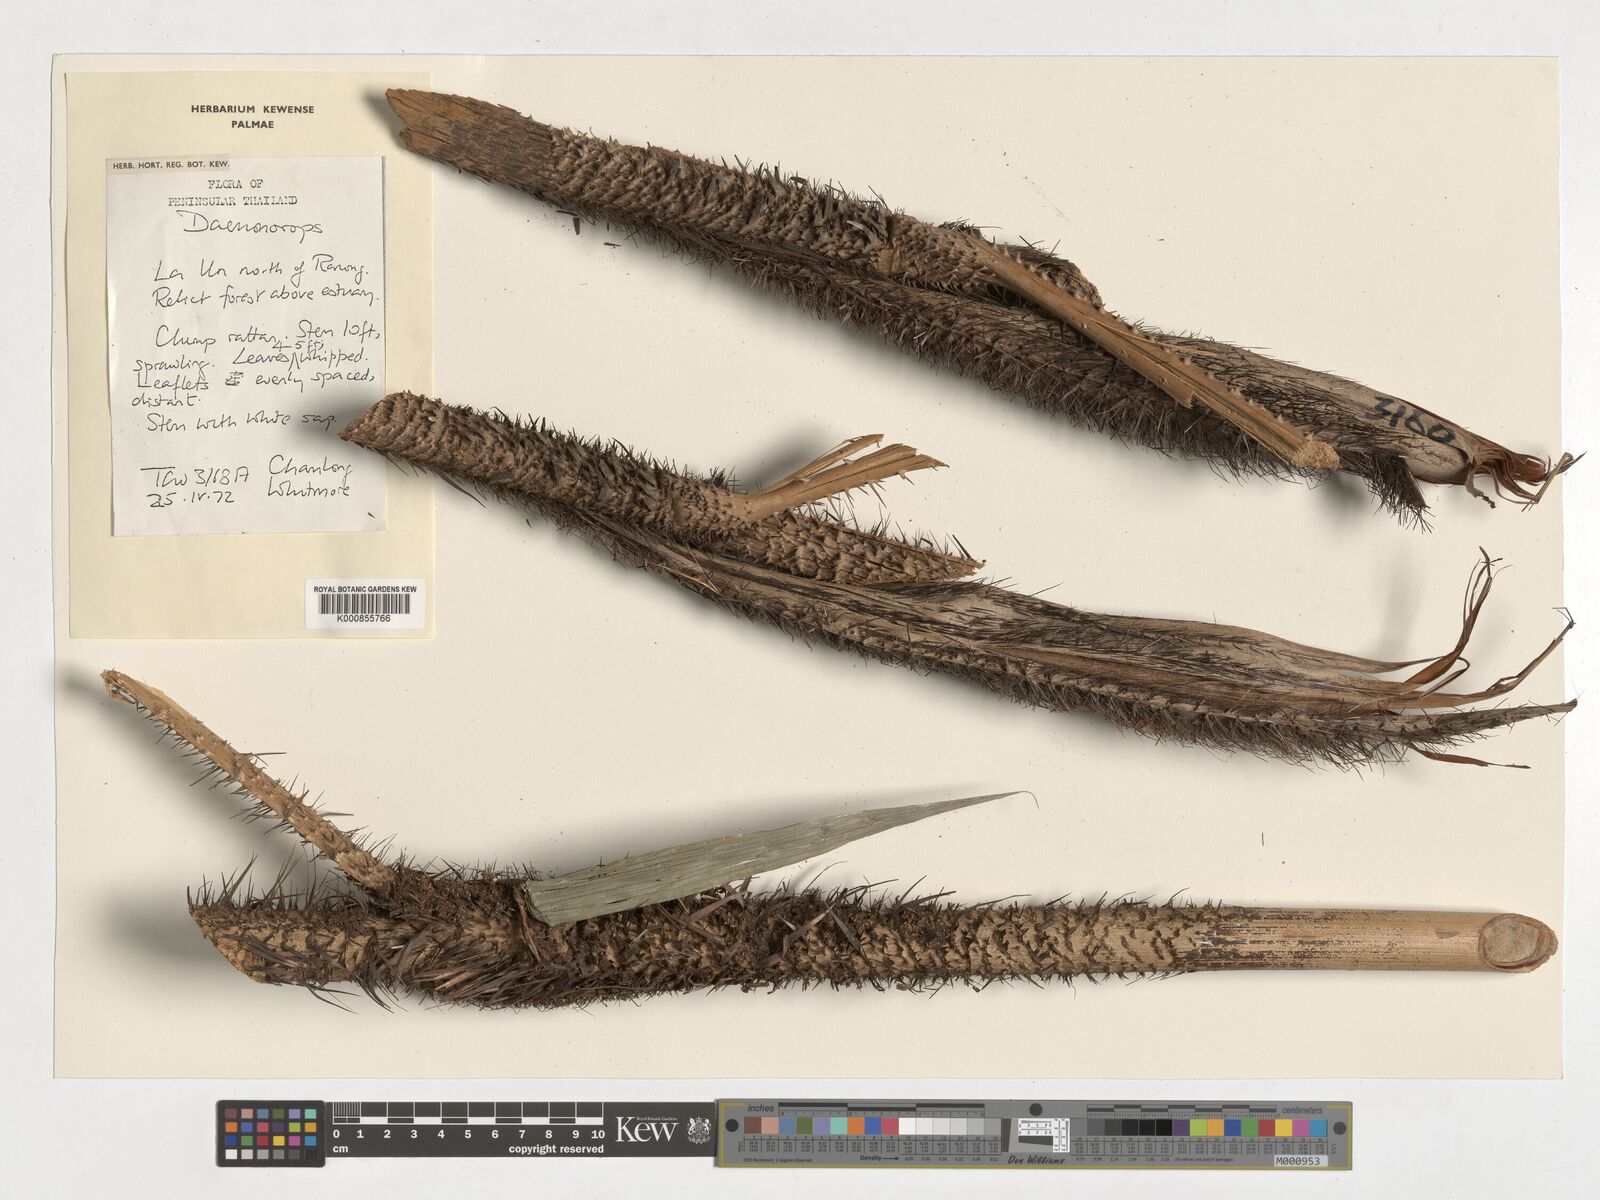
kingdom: Plantae
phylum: Tracheophyta
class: Liliopsida
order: Arecales
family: Arecaceae
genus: Daemonorops
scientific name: Daemonorops
